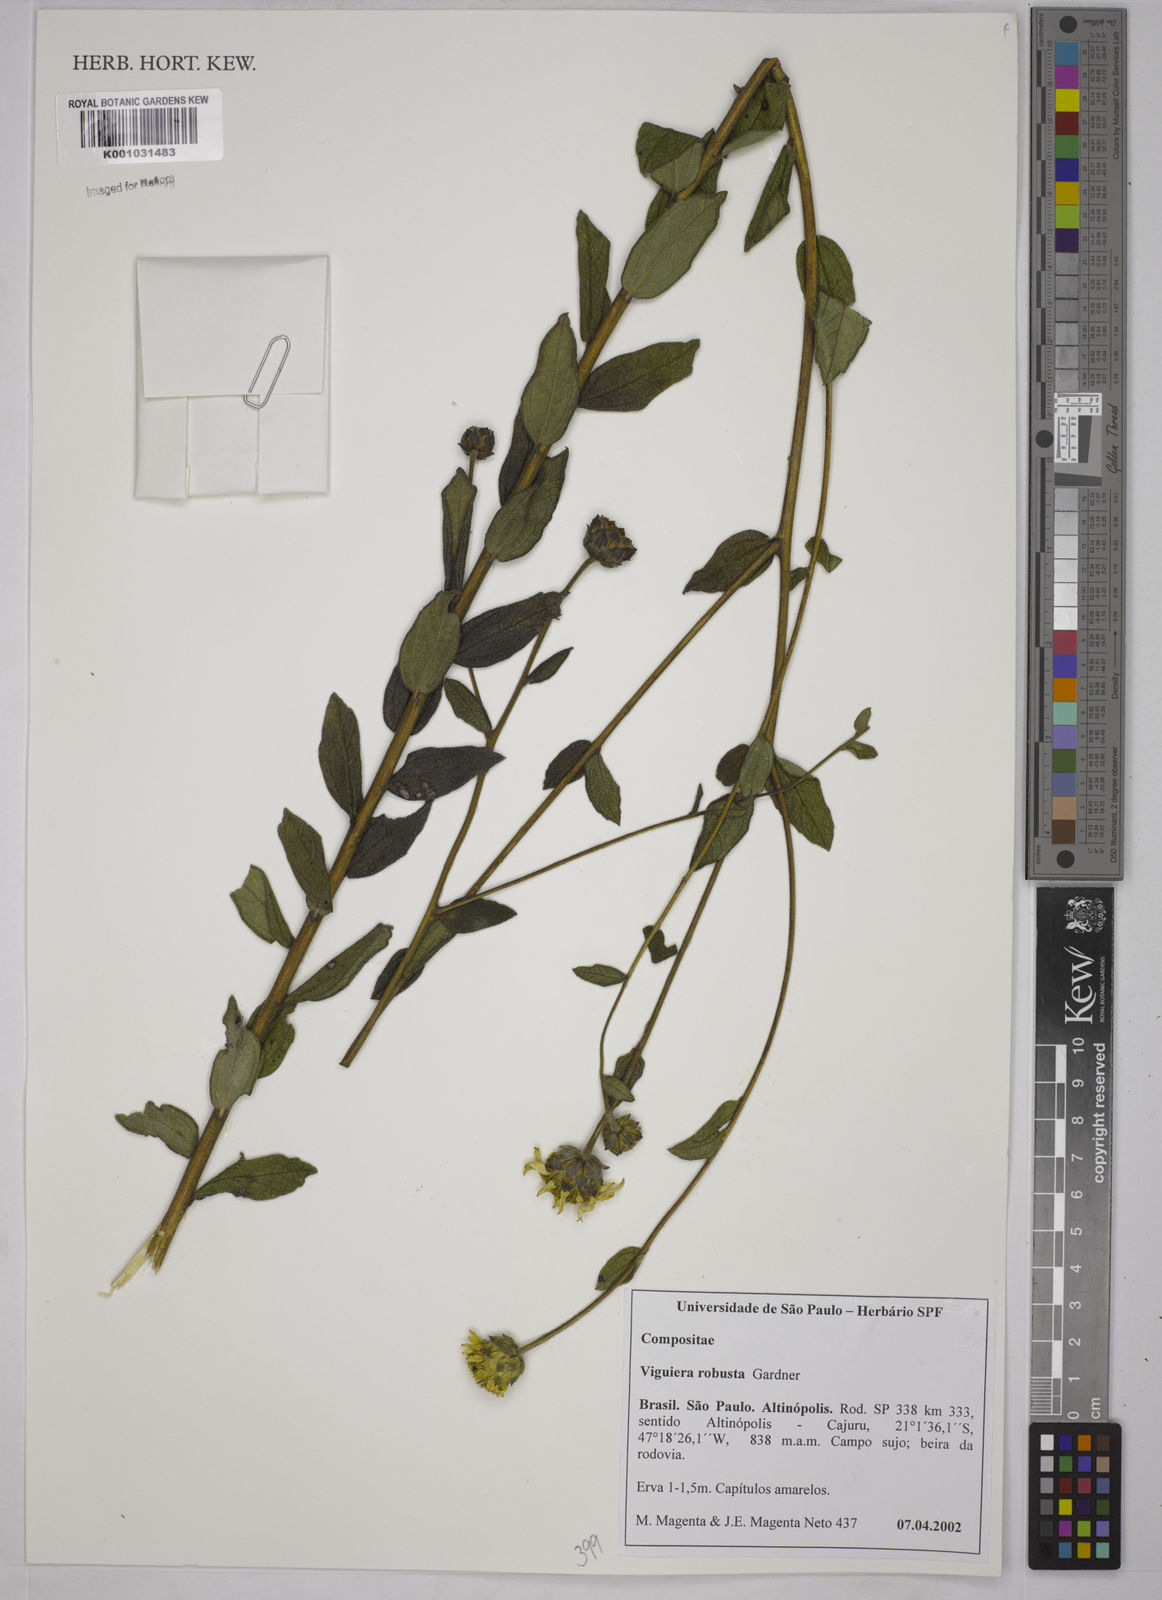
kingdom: Plantae
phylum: Tracheophyta
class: Magnoliopsida
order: Asterales
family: Asteraceae
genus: Aldama
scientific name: Aldama robusta
